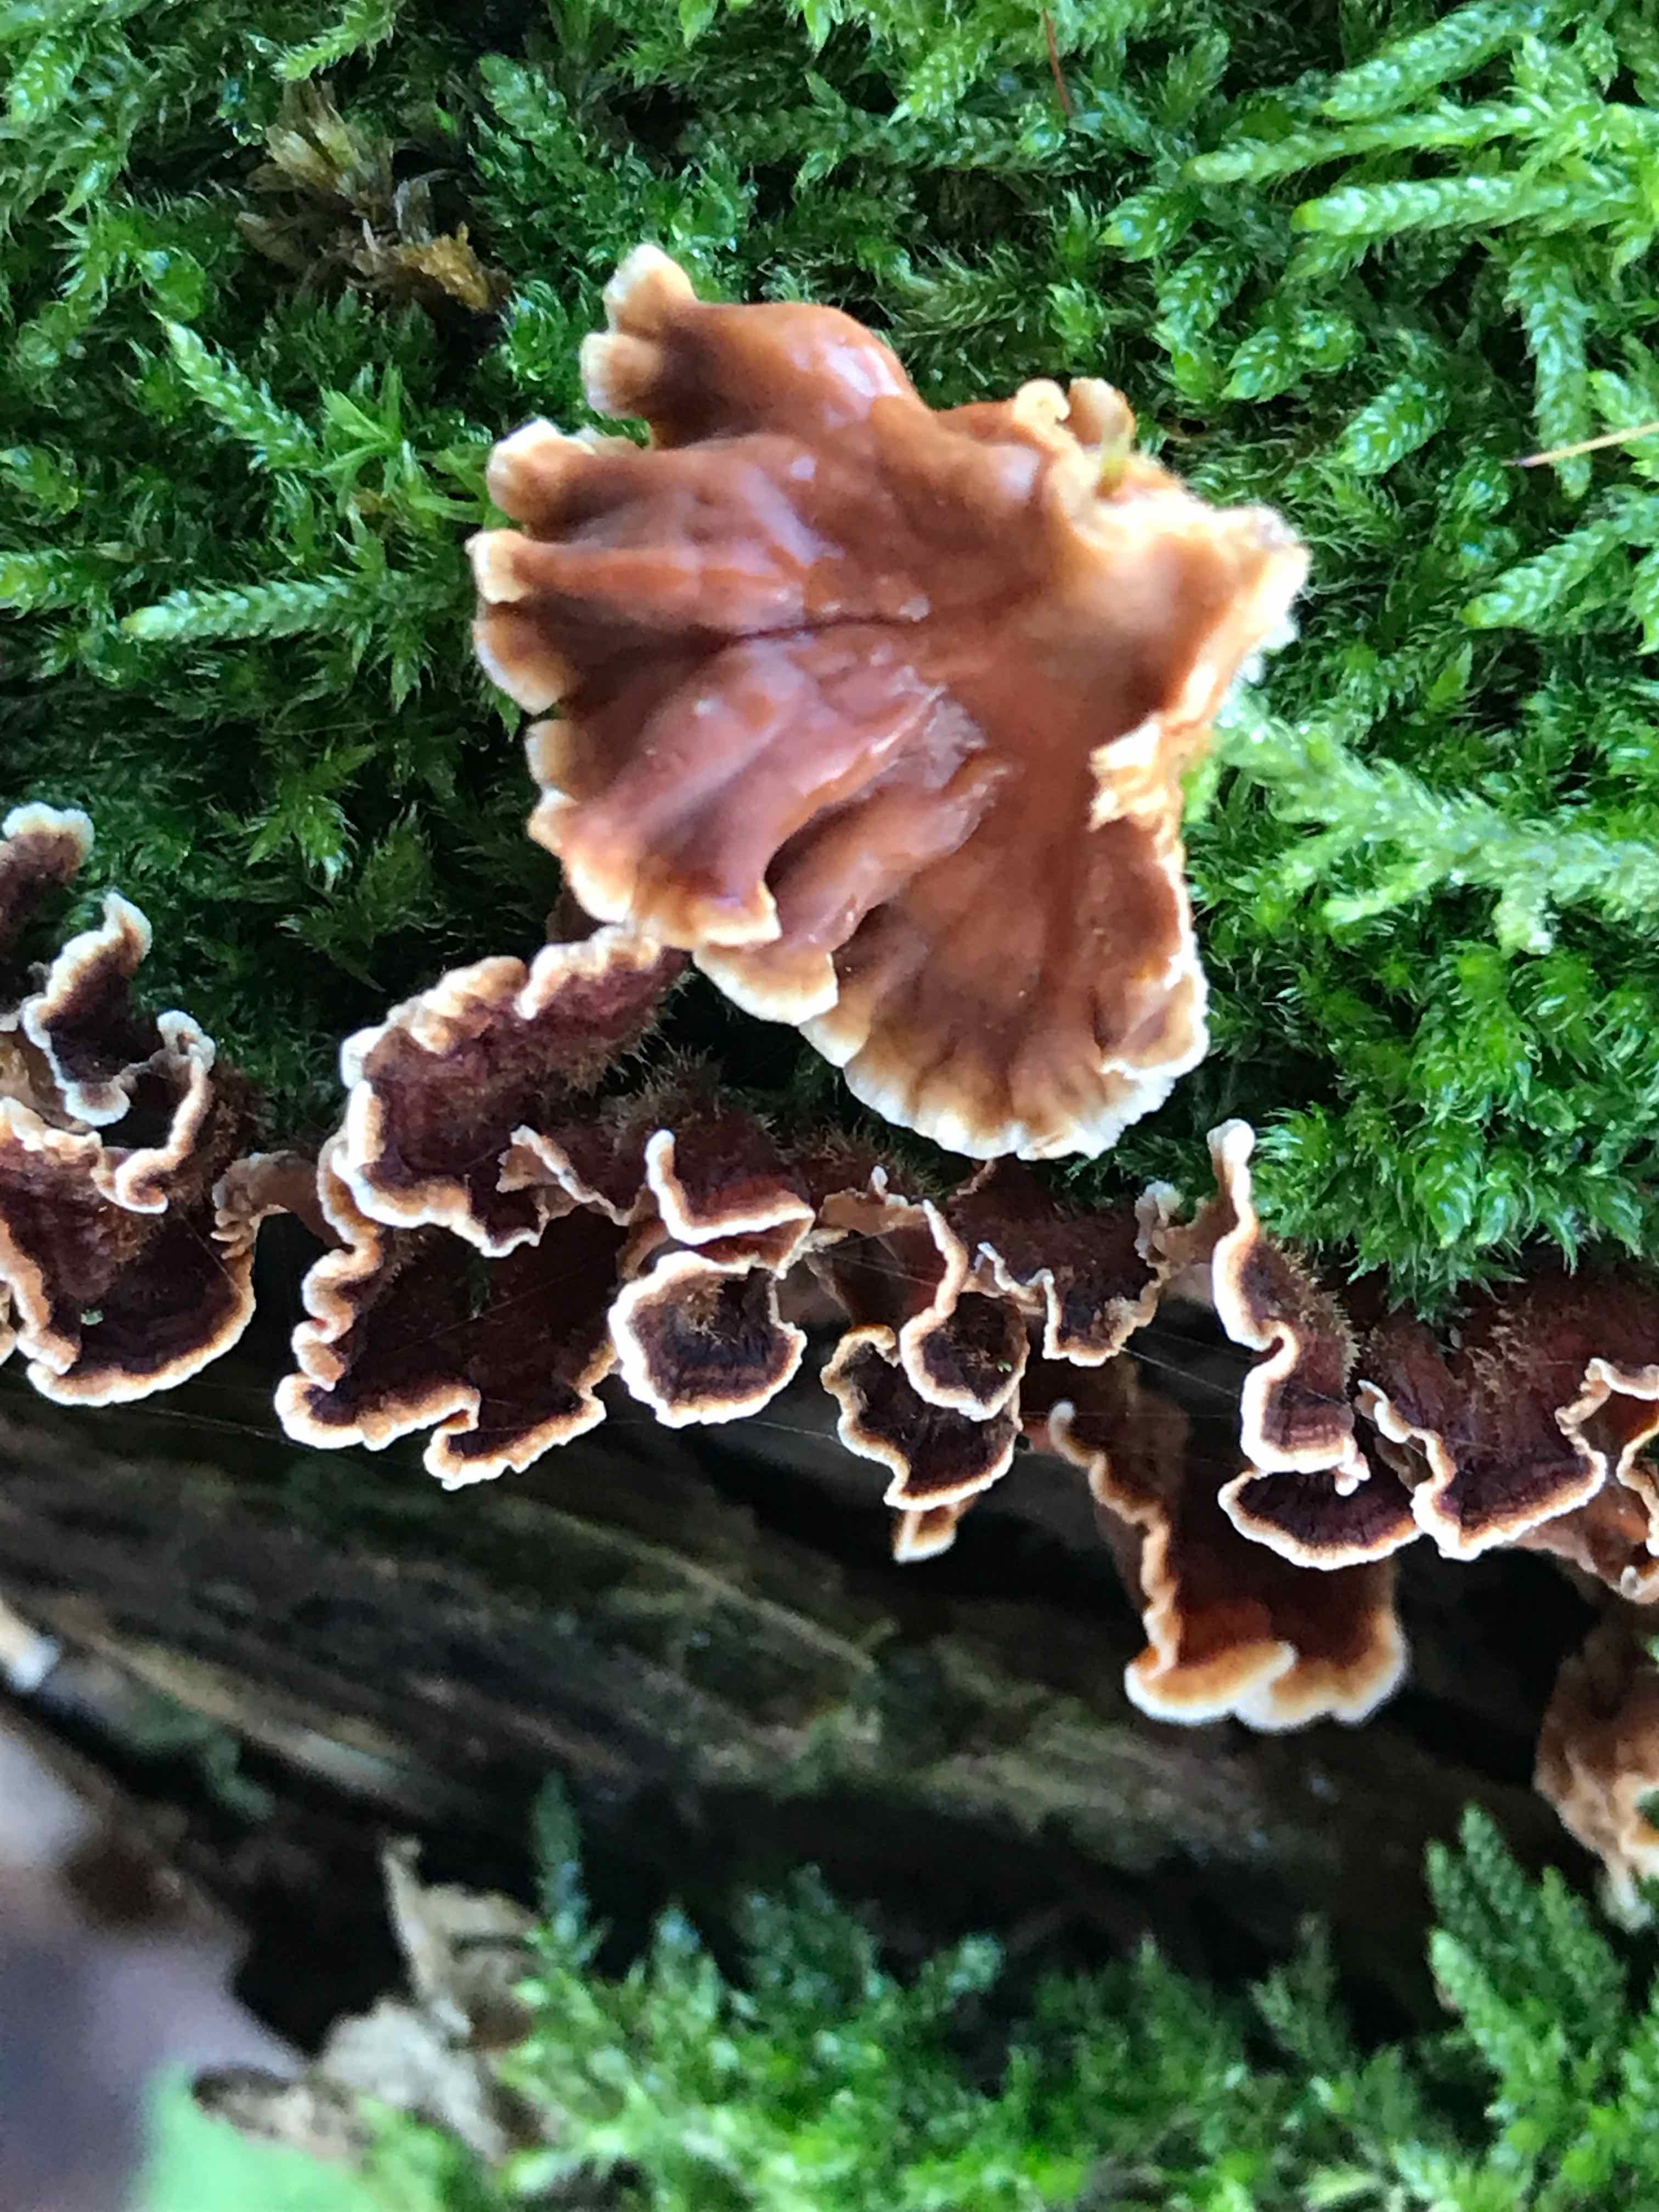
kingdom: Fungi
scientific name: Fungi
